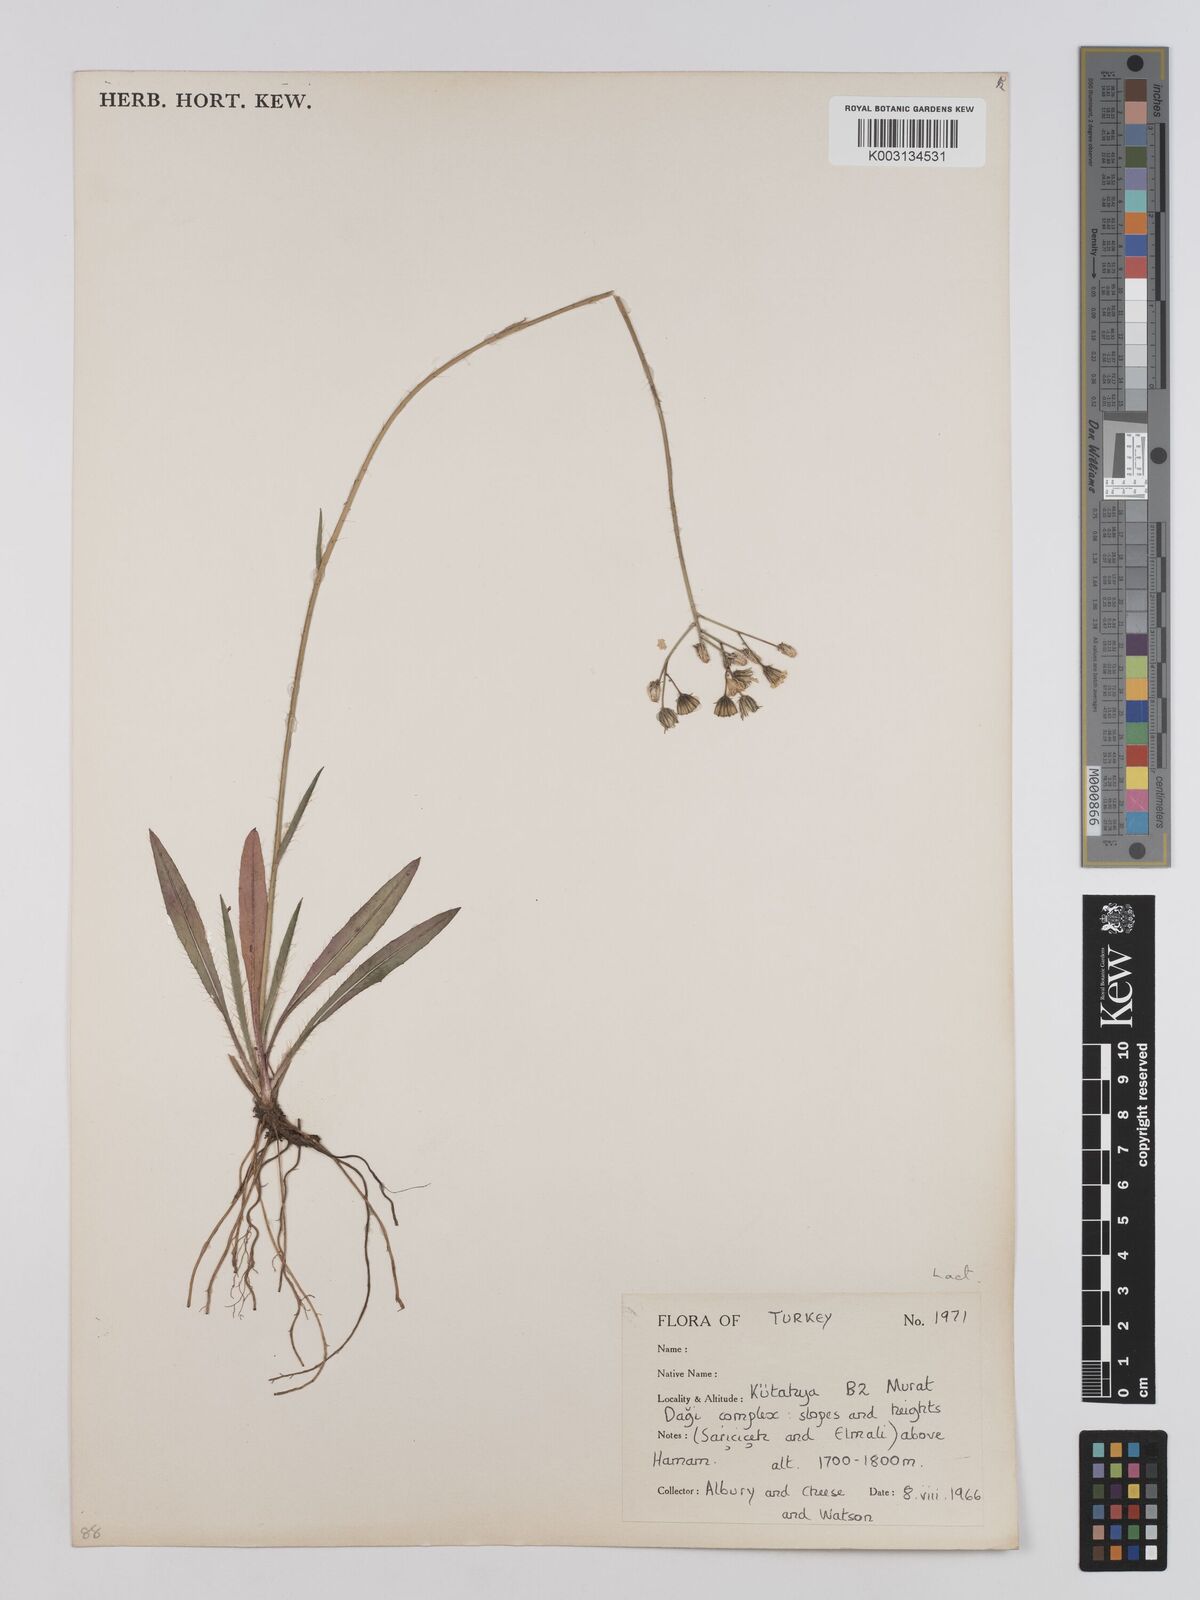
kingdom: Plantae
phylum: Tracheophyta
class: Magnoliopsida
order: Asterales
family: Asteraceae
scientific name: Asteraceae
